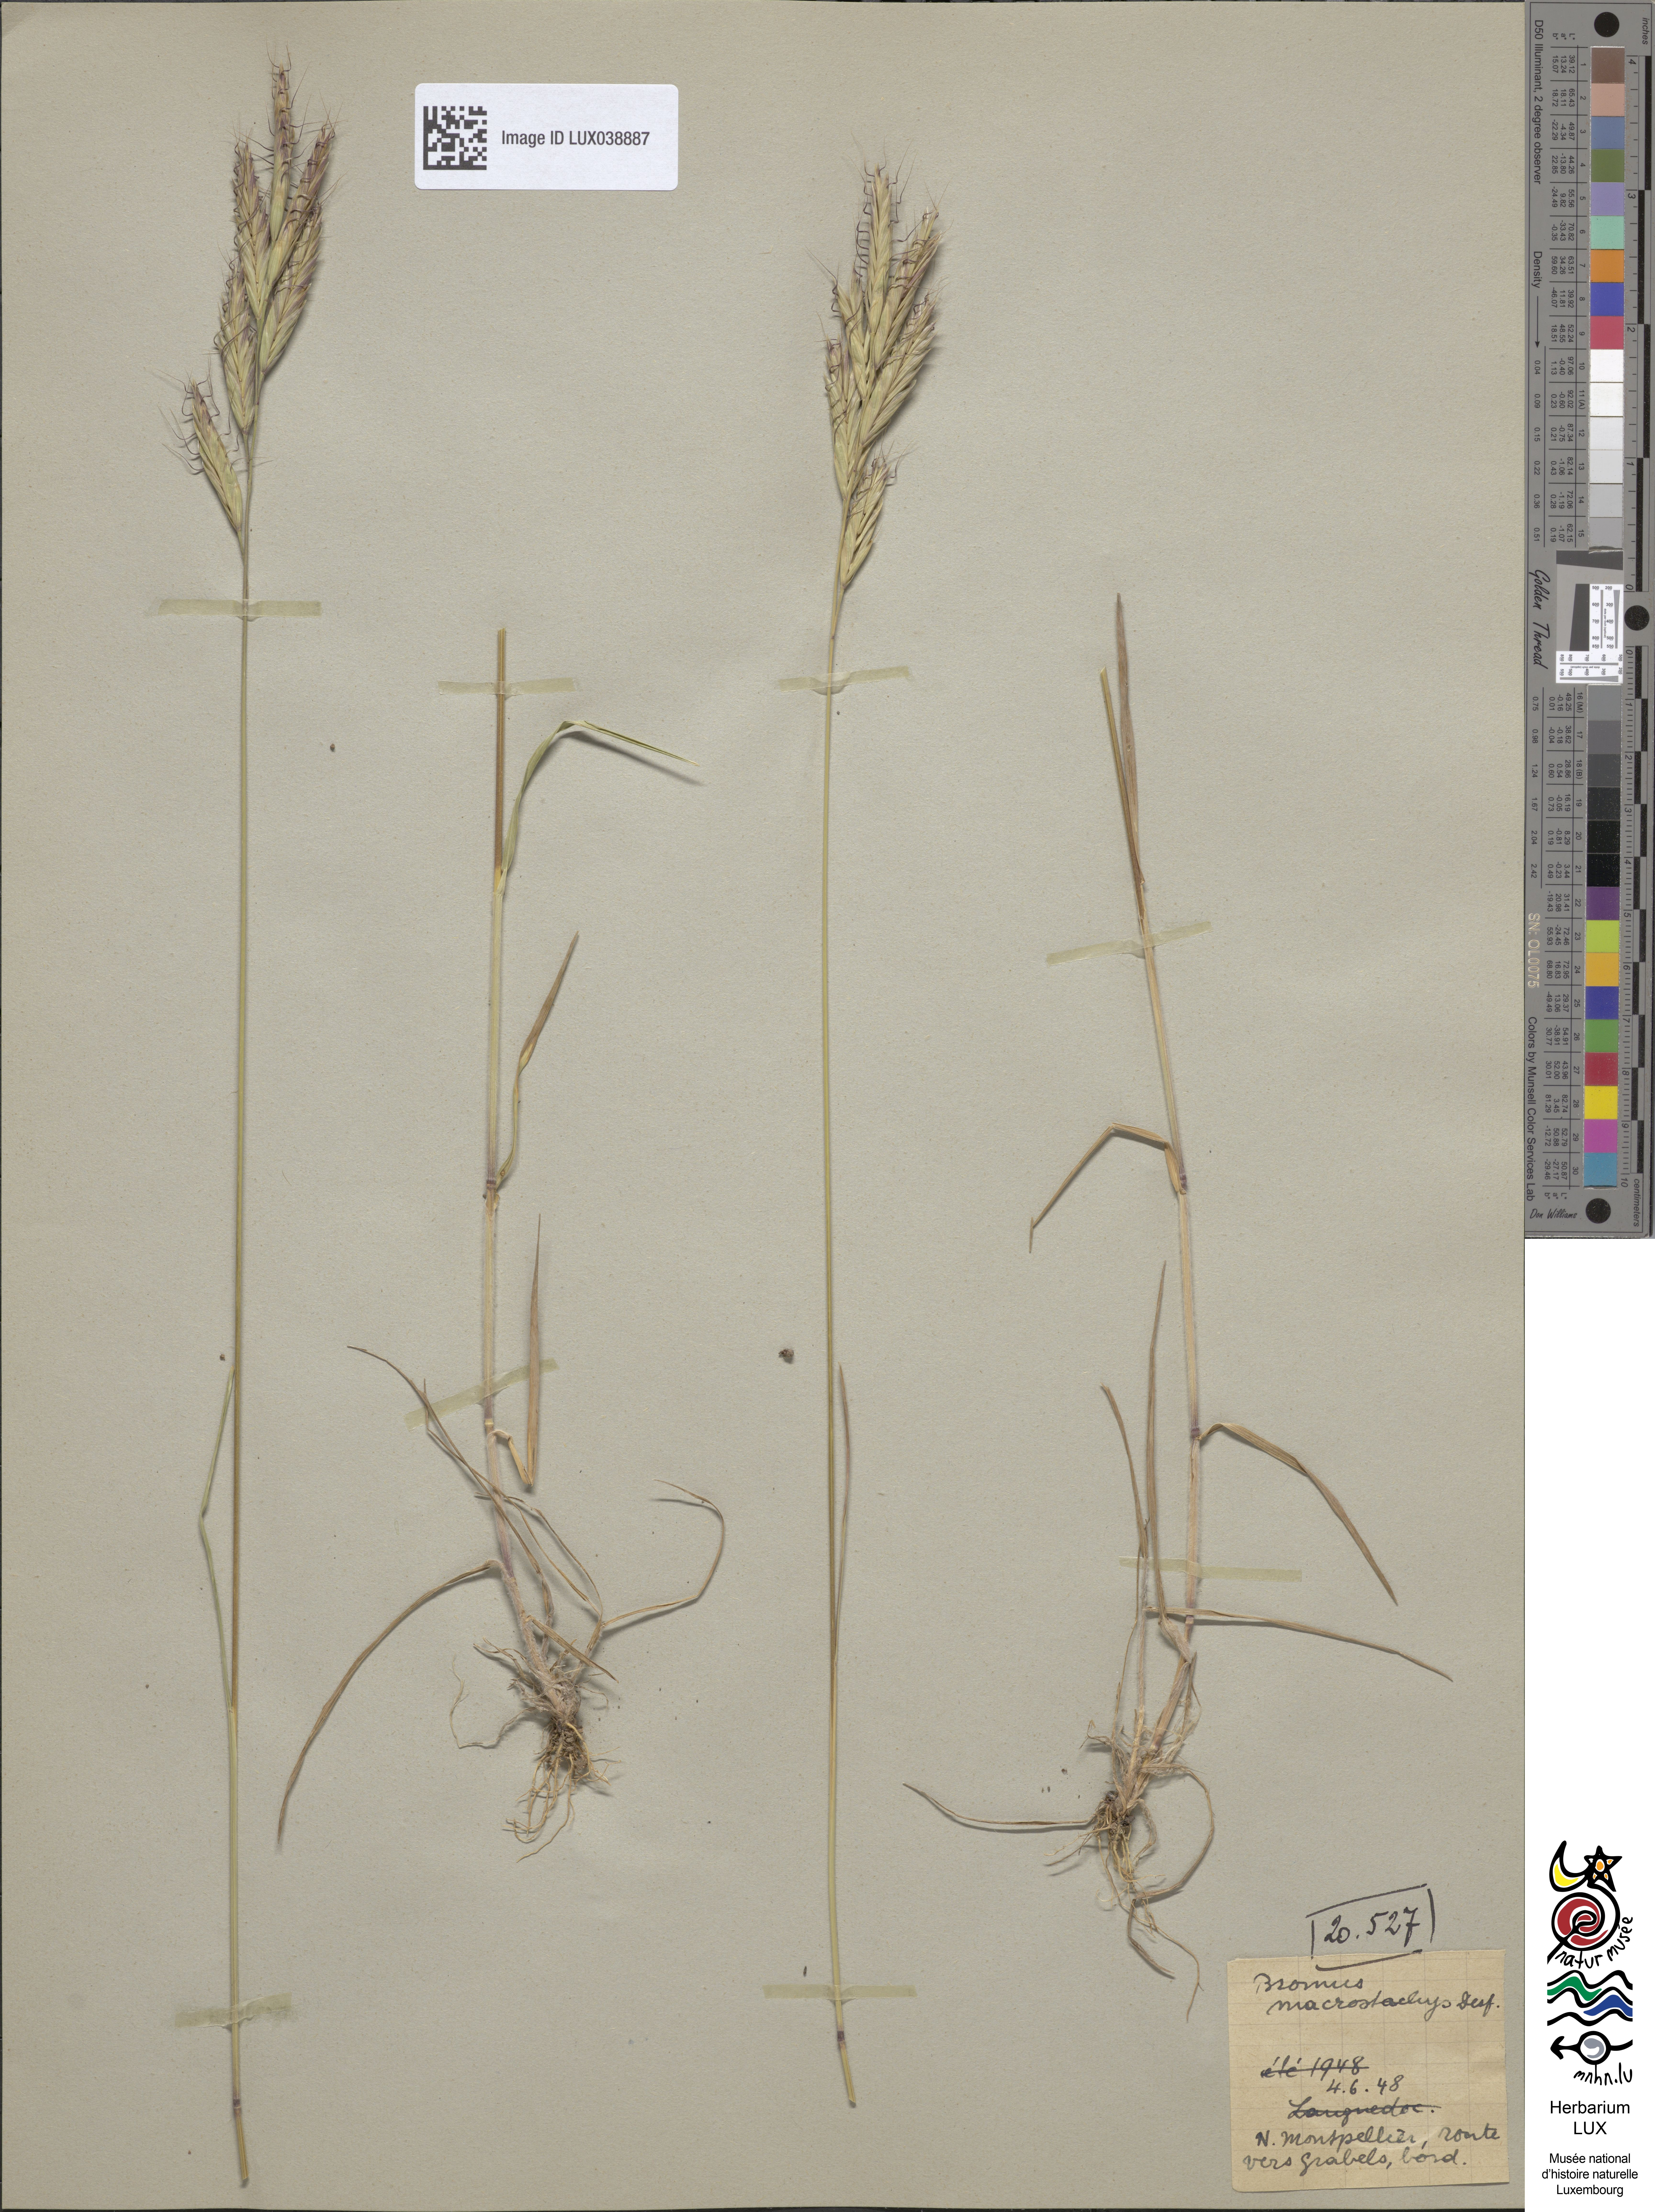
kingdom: Plantae
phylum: Tracheophyta
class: Liliopsida
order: Poales
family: Poaceae
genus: Bromus
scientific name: Bromus lanceolatus
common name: Mediterranean brome
